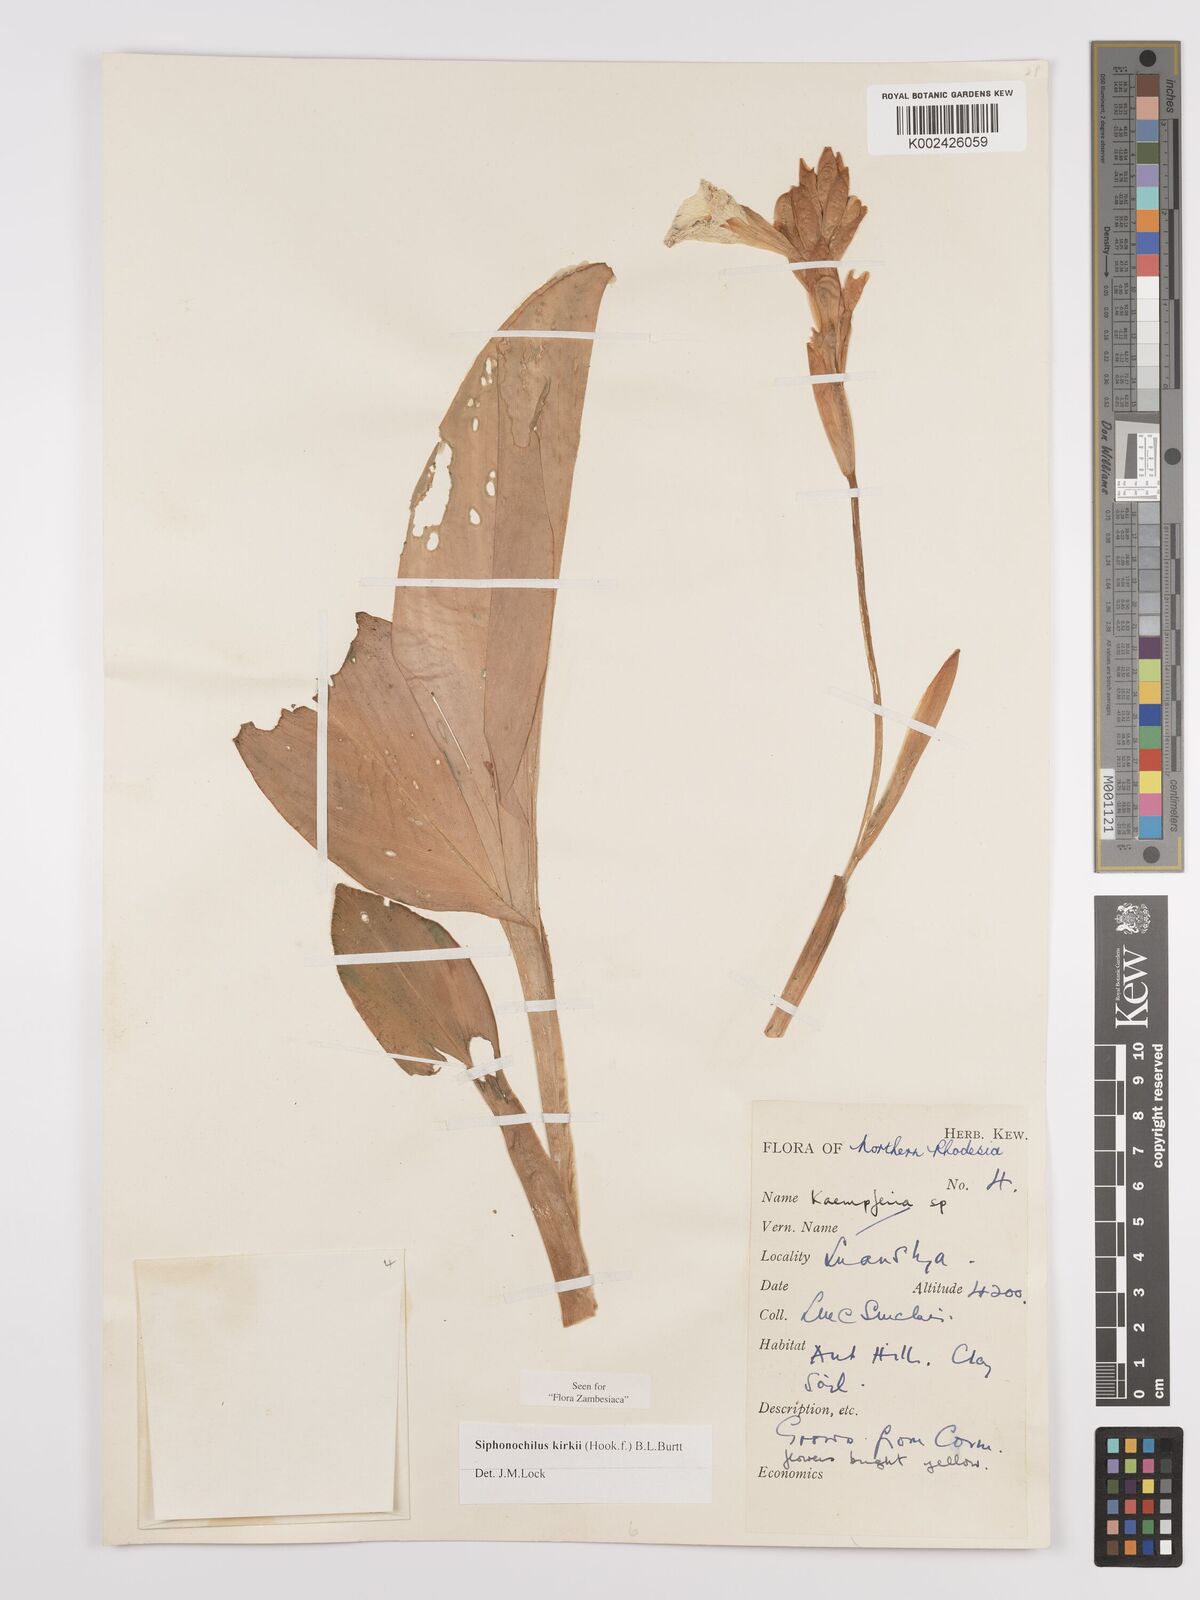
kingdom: Plantae
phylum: Tracheophyta
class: Liliopsida
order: Zingiberales
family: Zingiberaceae
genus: Siphonochilus
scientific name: Siphonochilus kirkii
